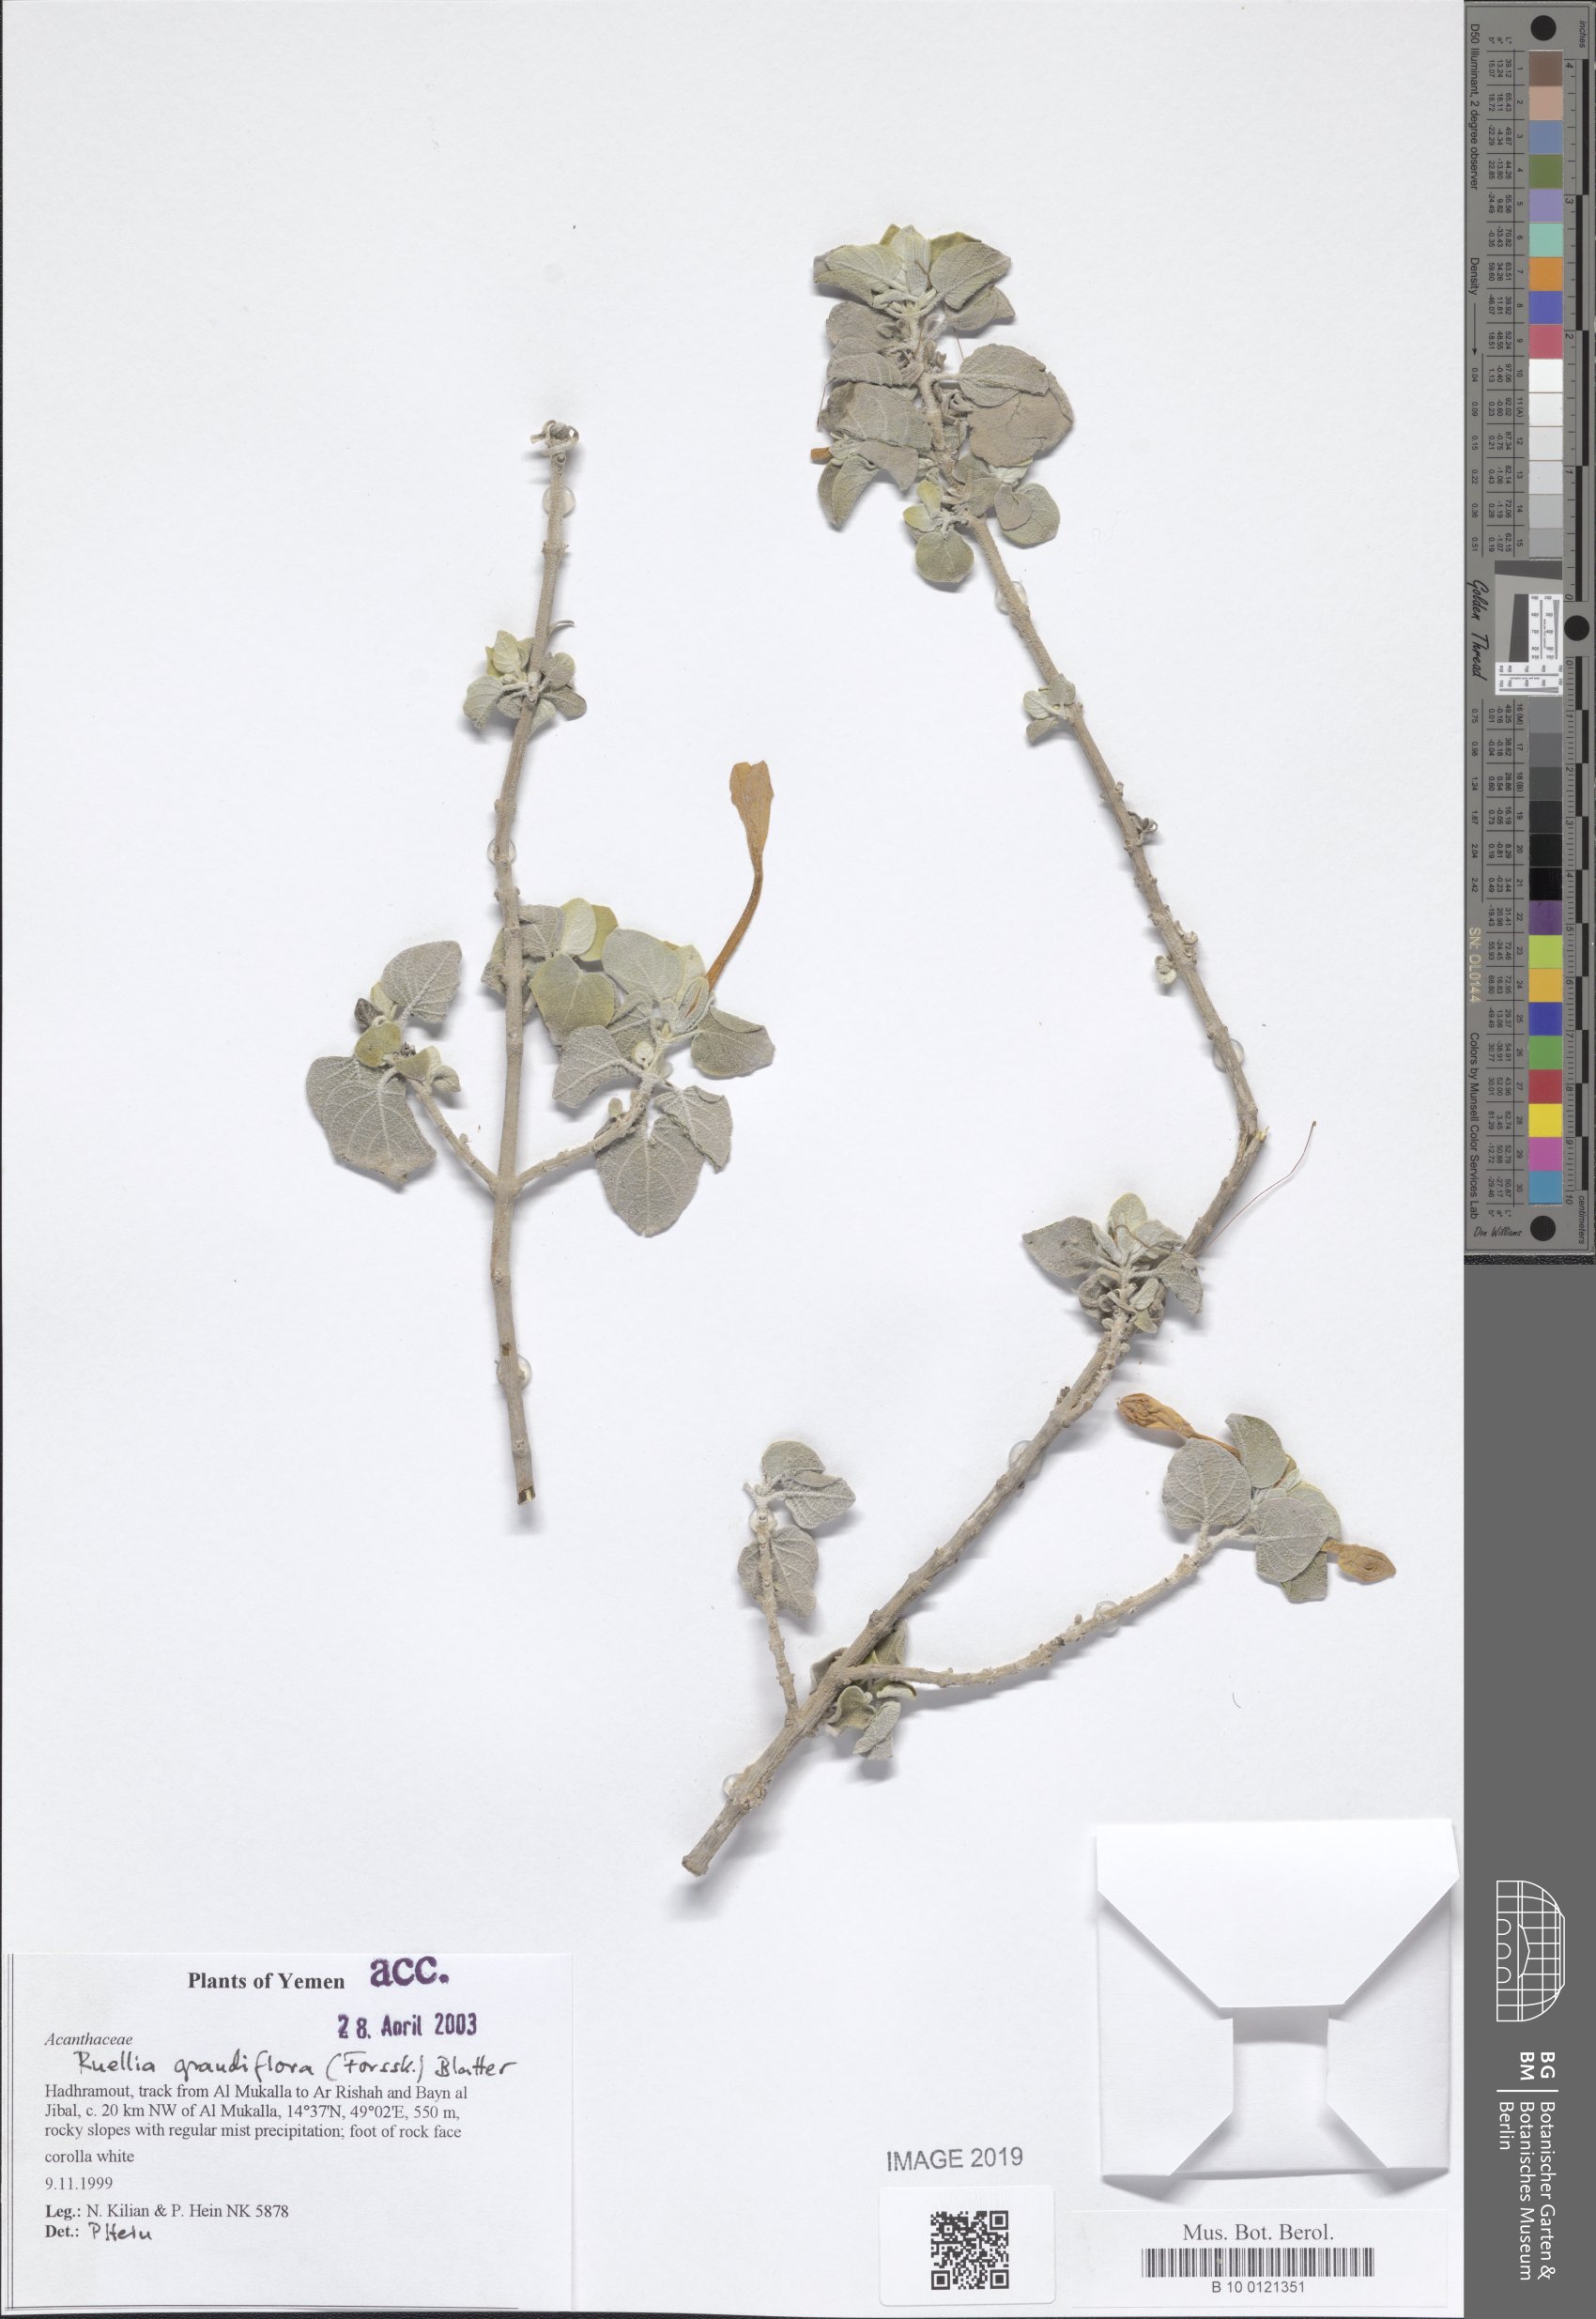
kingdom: Plantae
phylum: Tracheophyta
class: Magnoliopsida
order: Lamiales
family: Acanthaceae
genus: Ruellia
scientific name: Ruellia grandiflora
